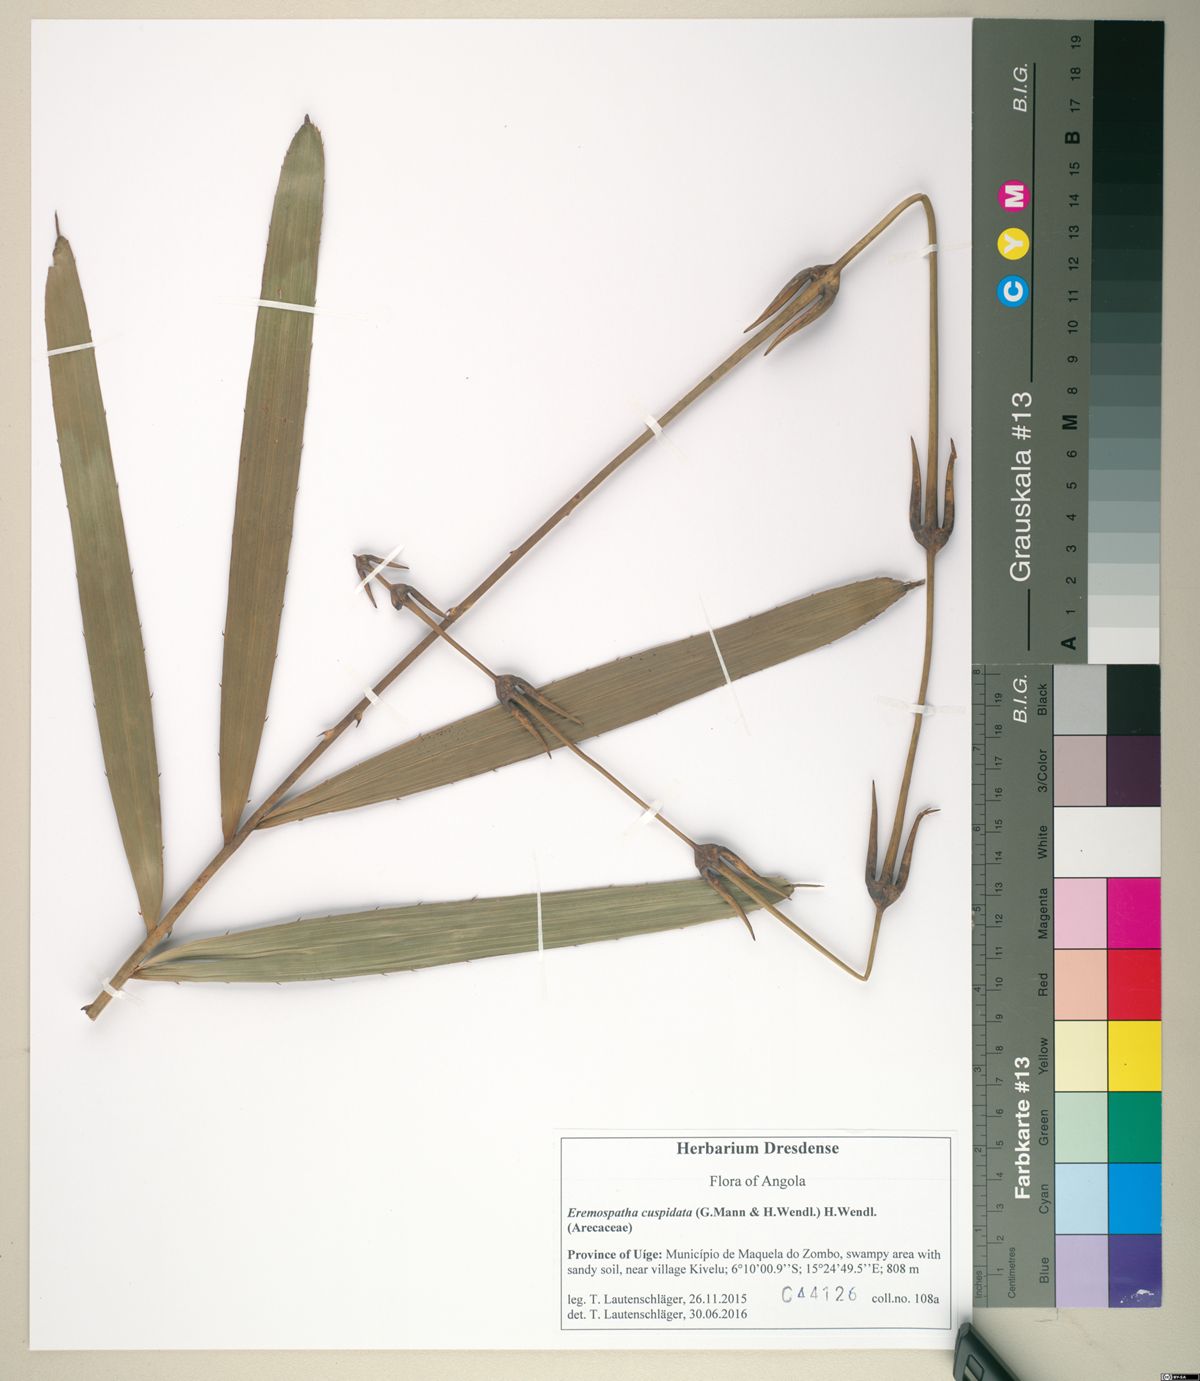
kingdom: Plantae
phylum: Tracheophyta
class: Liliopsida
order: Arecales
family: Arecaceae
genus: Eremospatha
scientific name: Eremospatha cuspidata
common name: Rattan
